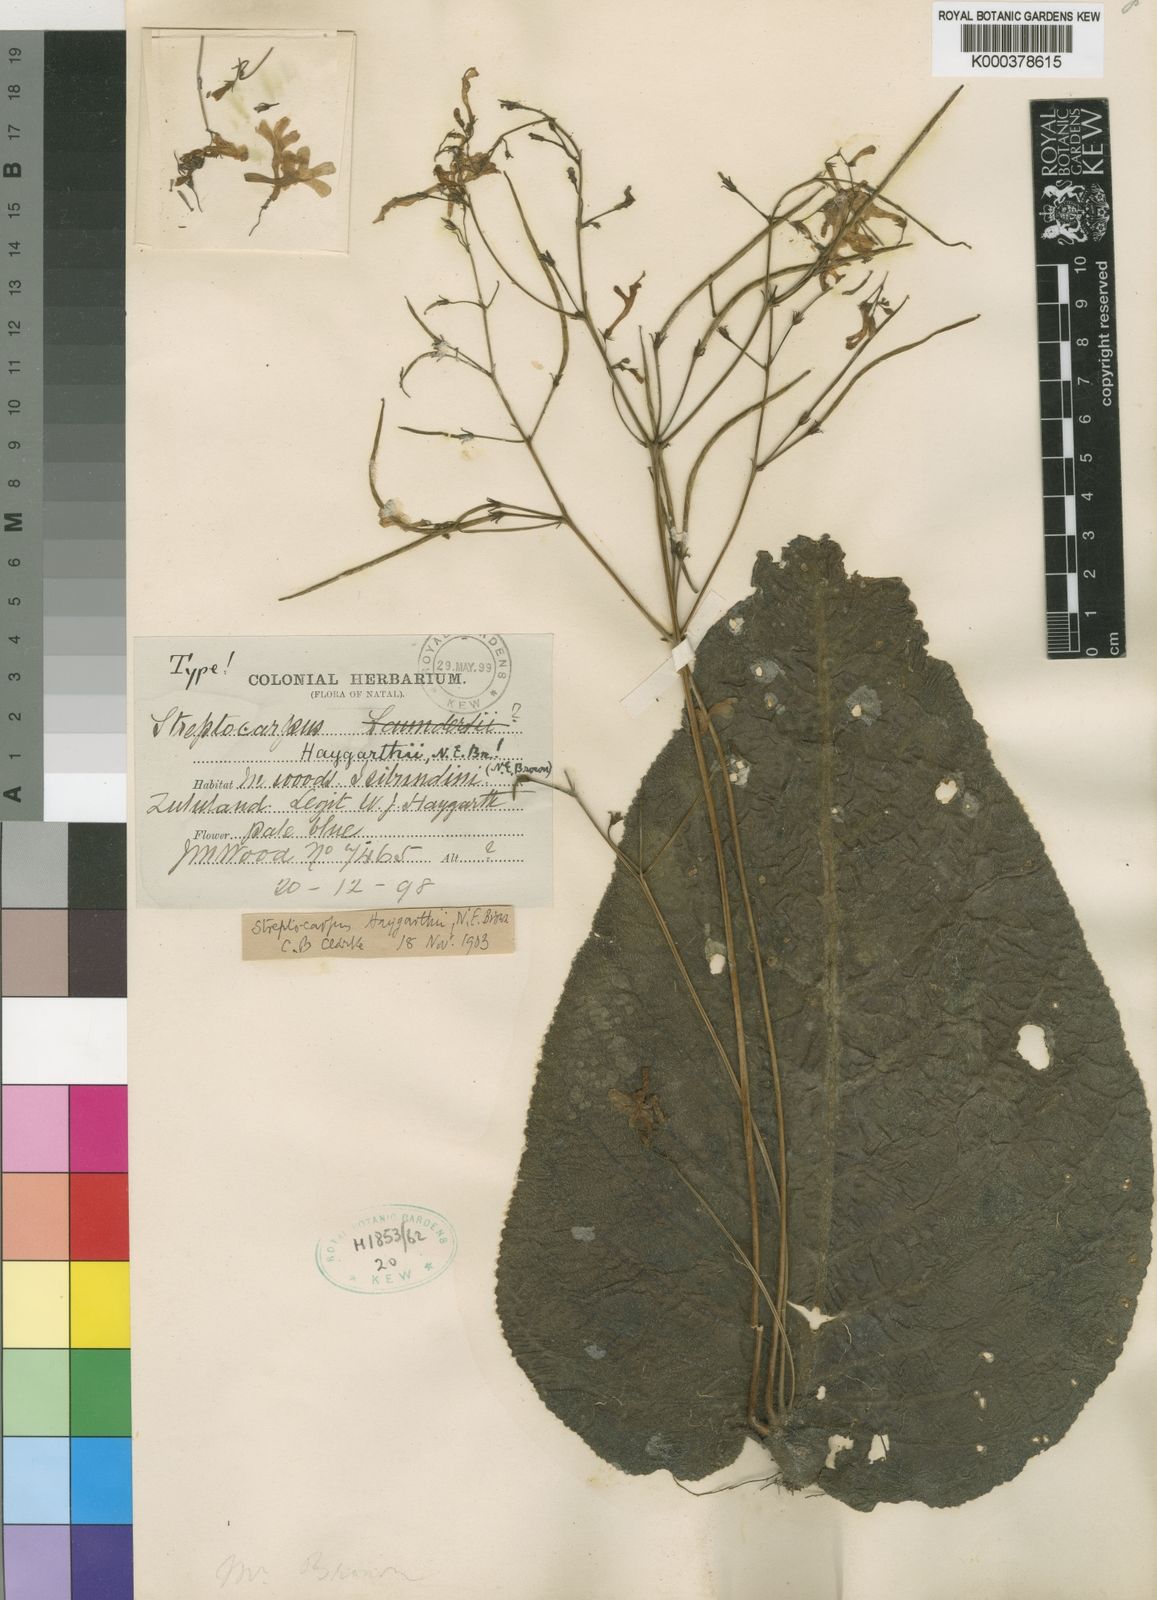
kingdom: Plantae
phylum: Tracheophyta
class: Magnoliopsida
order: Lamiales
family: Gesneriaceae
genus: Streptocarpus
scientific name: Streptocarpus haygarthii
